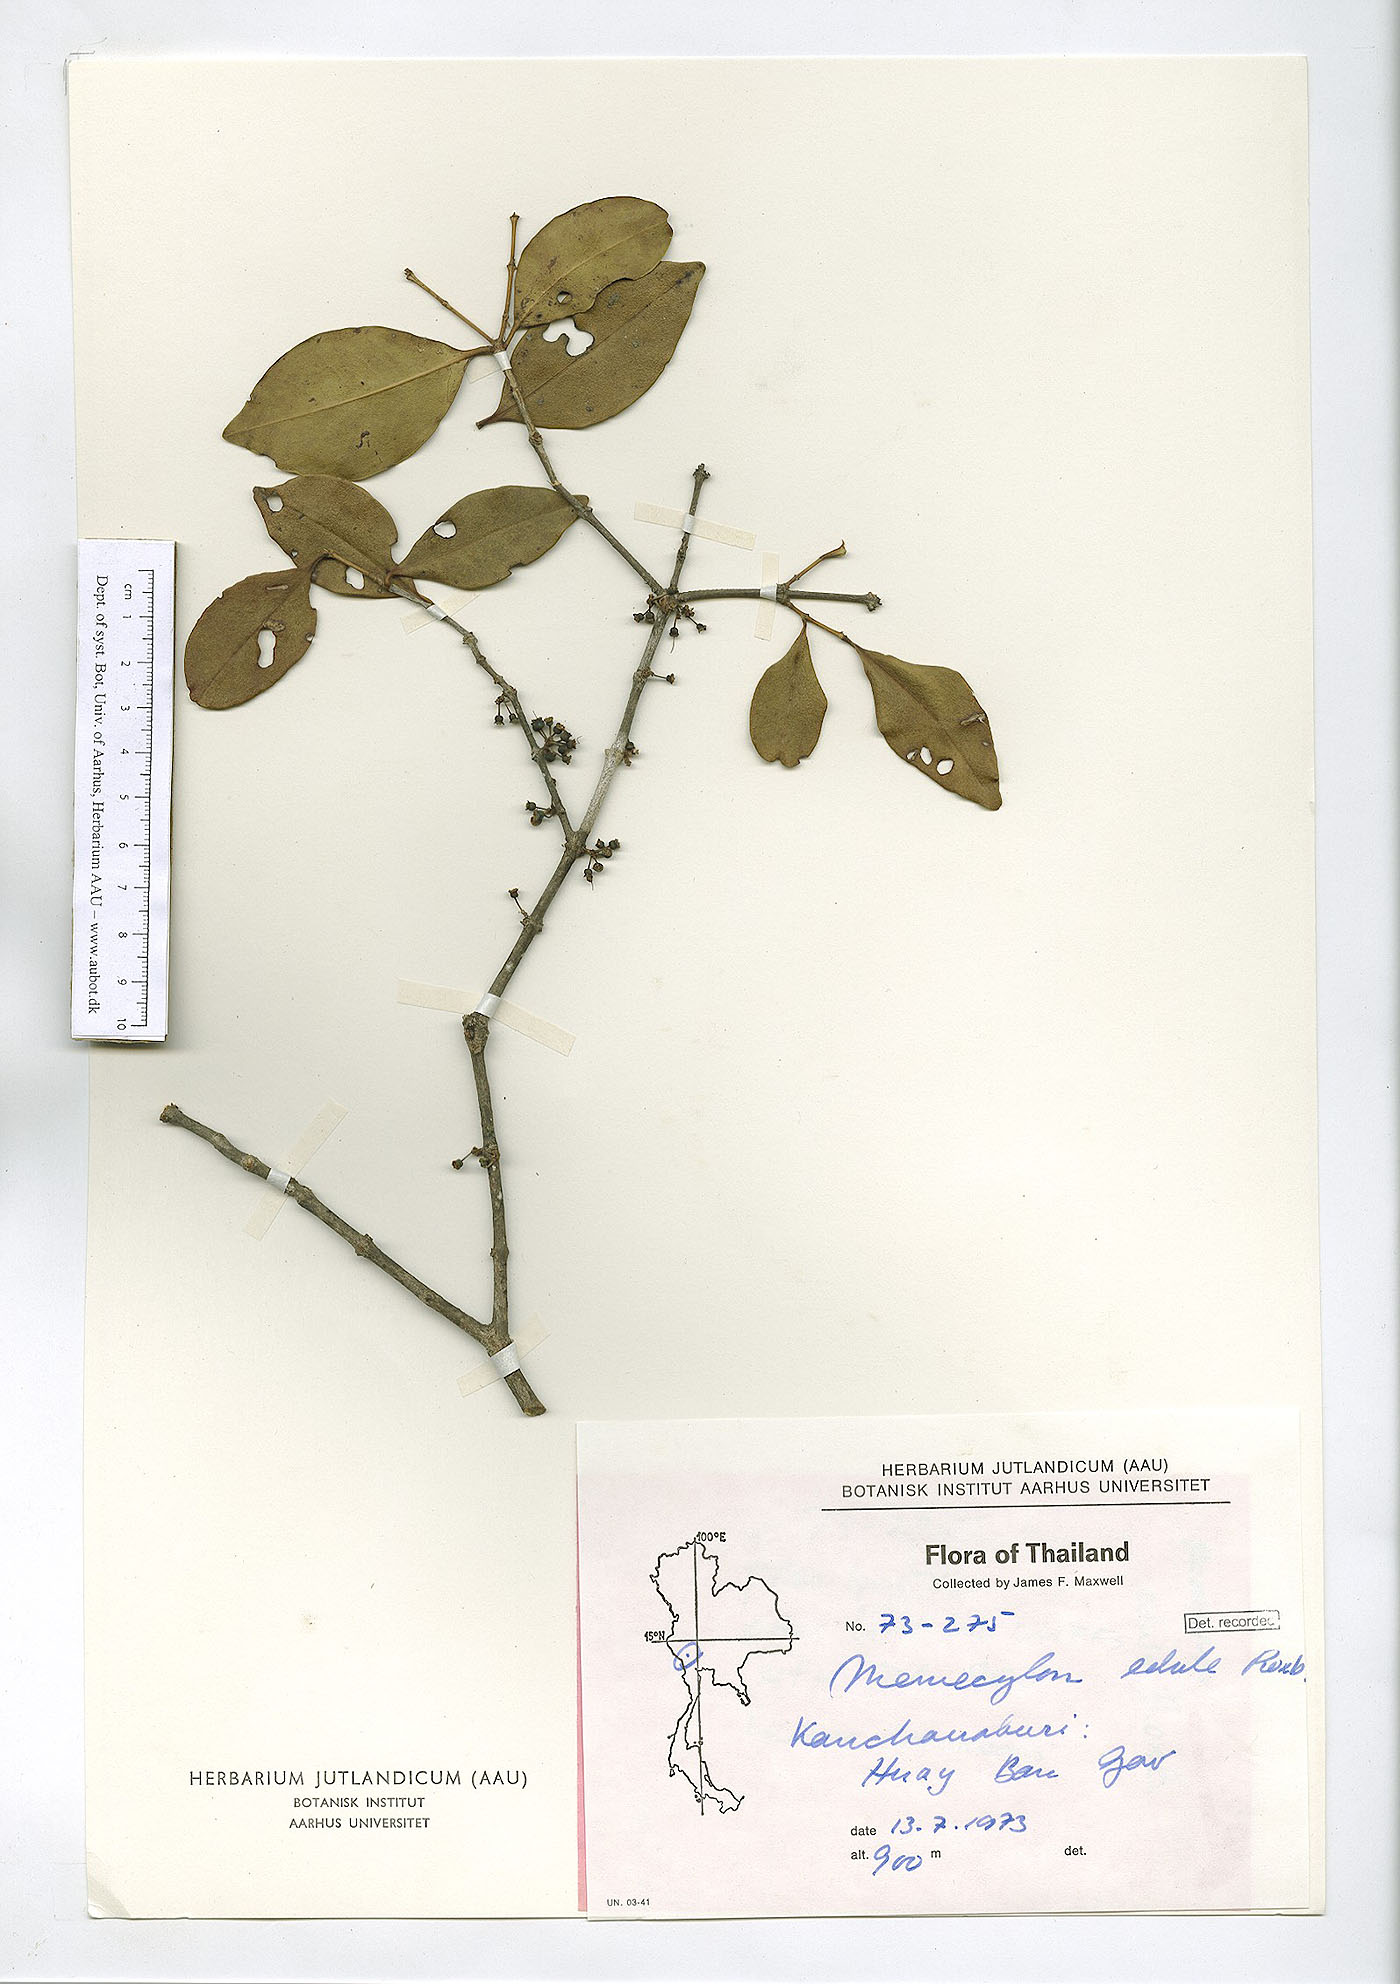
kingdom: Plantae
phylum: Tracheophyta
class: Magnoliopsida
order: Myrtales
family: Melastomataceae
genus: Memecylon
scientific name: Memecylon scutellatum
